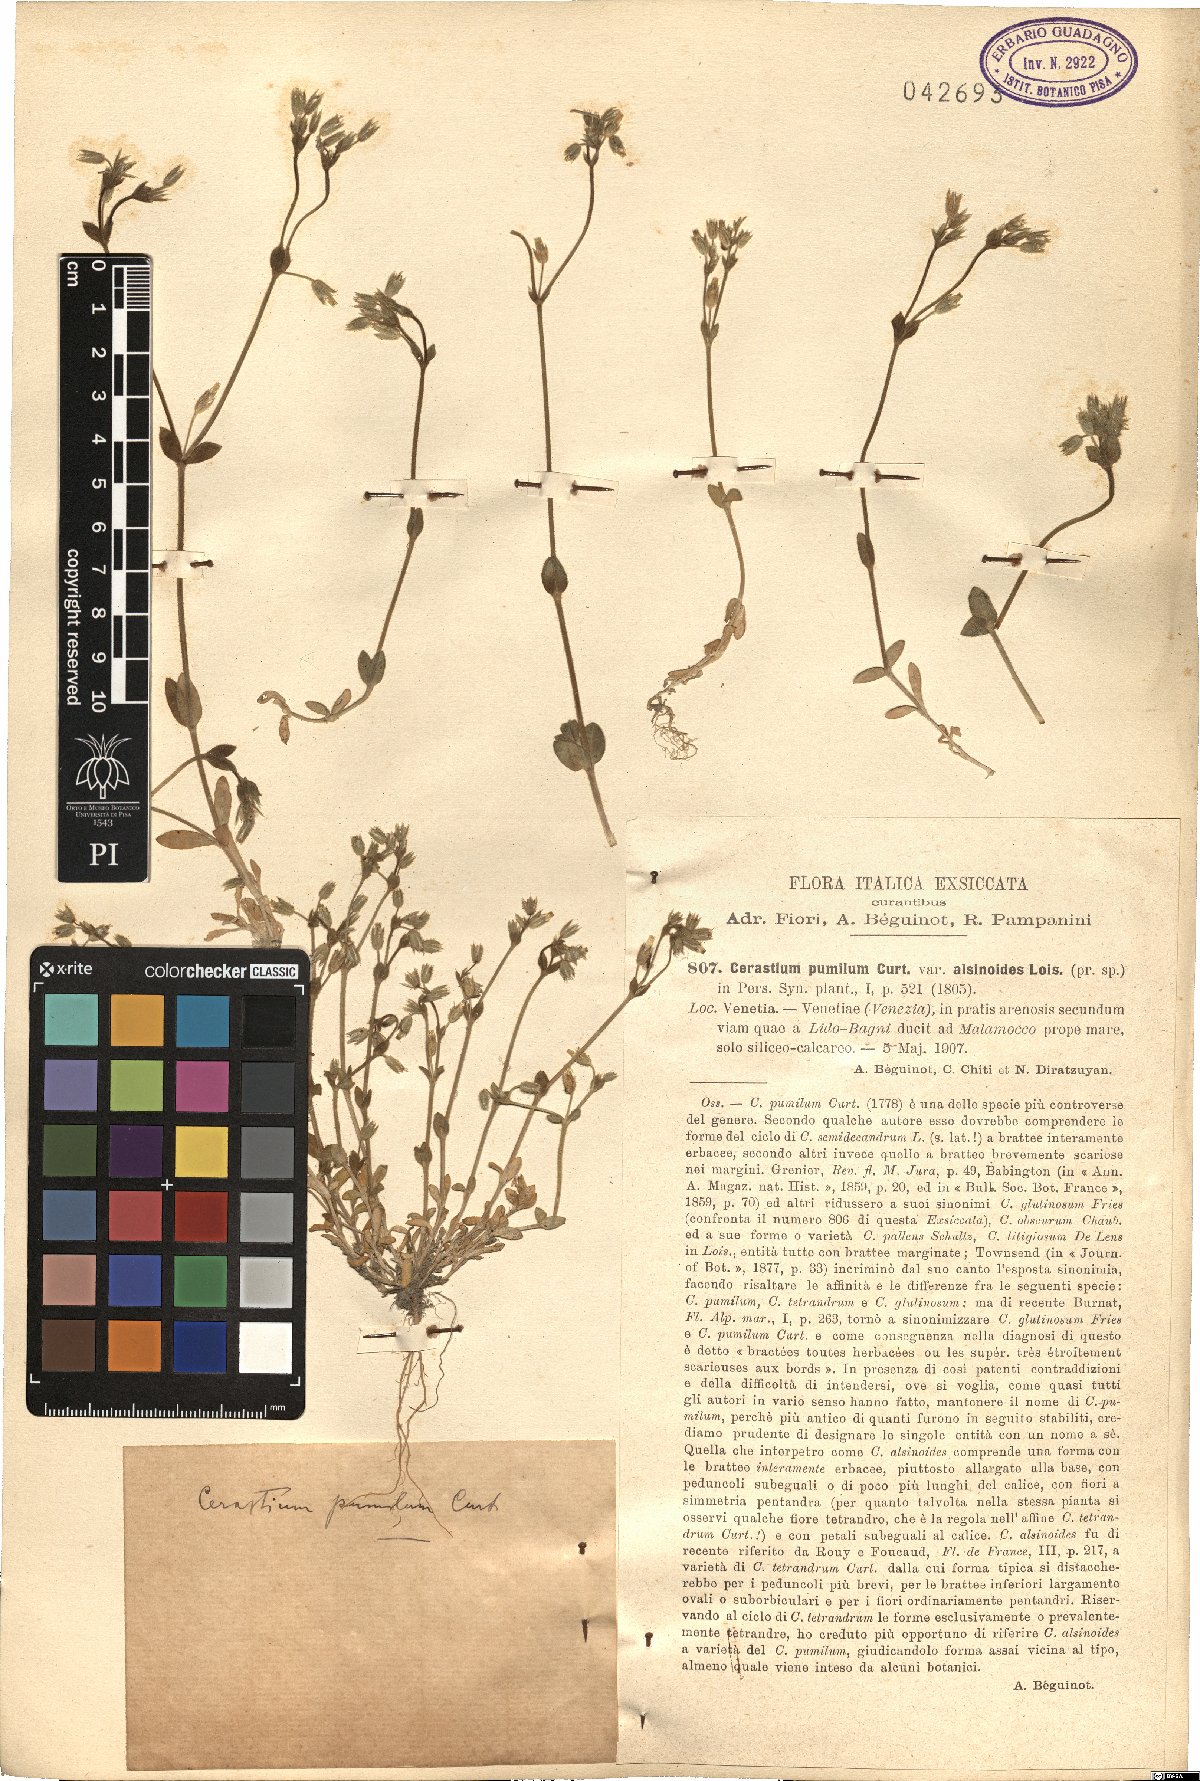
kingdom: Plantae
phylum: Tracheophyta
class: Magnoliopsida
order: Caryophyllales
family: Caryophyllaceae
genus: Cerastium
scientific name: Cerastium pumilum
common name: Dwarf mouse-ear
